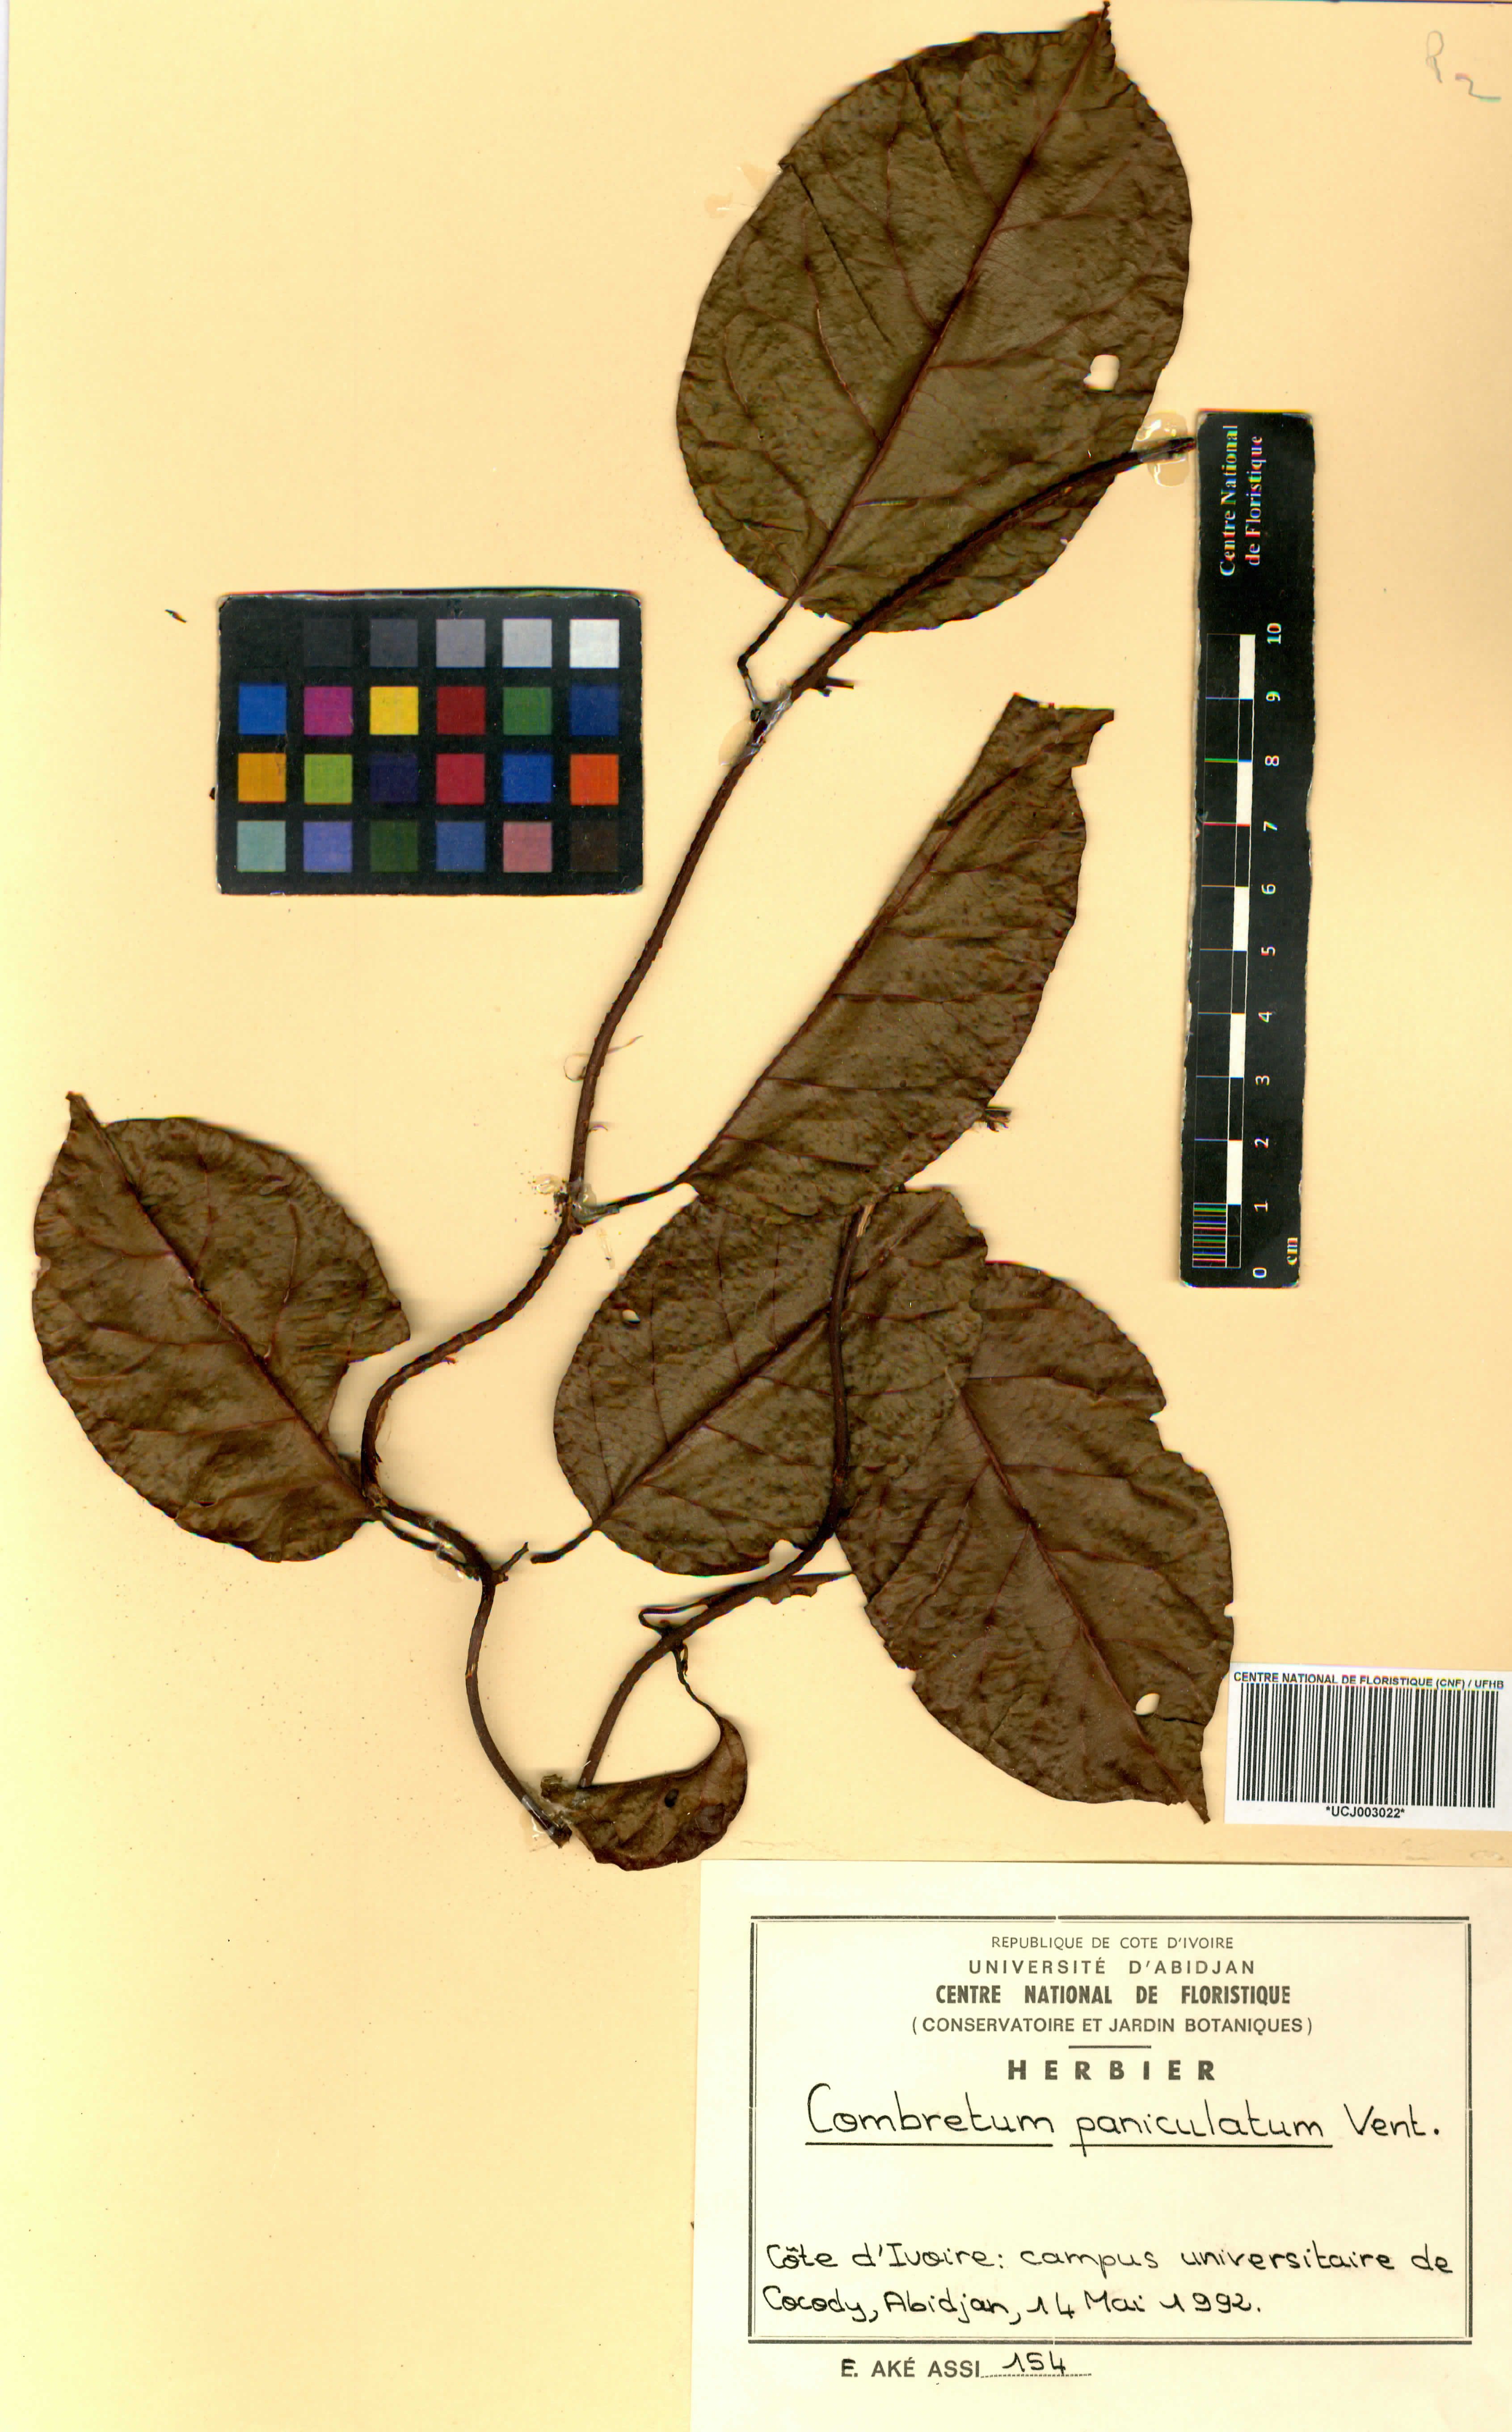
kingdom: Plantae
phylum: Tracheophyta
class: Magnoliopsida
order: Myrtales
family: Combretaceae
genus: Combretum
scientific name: Combretum paniculatum
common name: Fire vine
